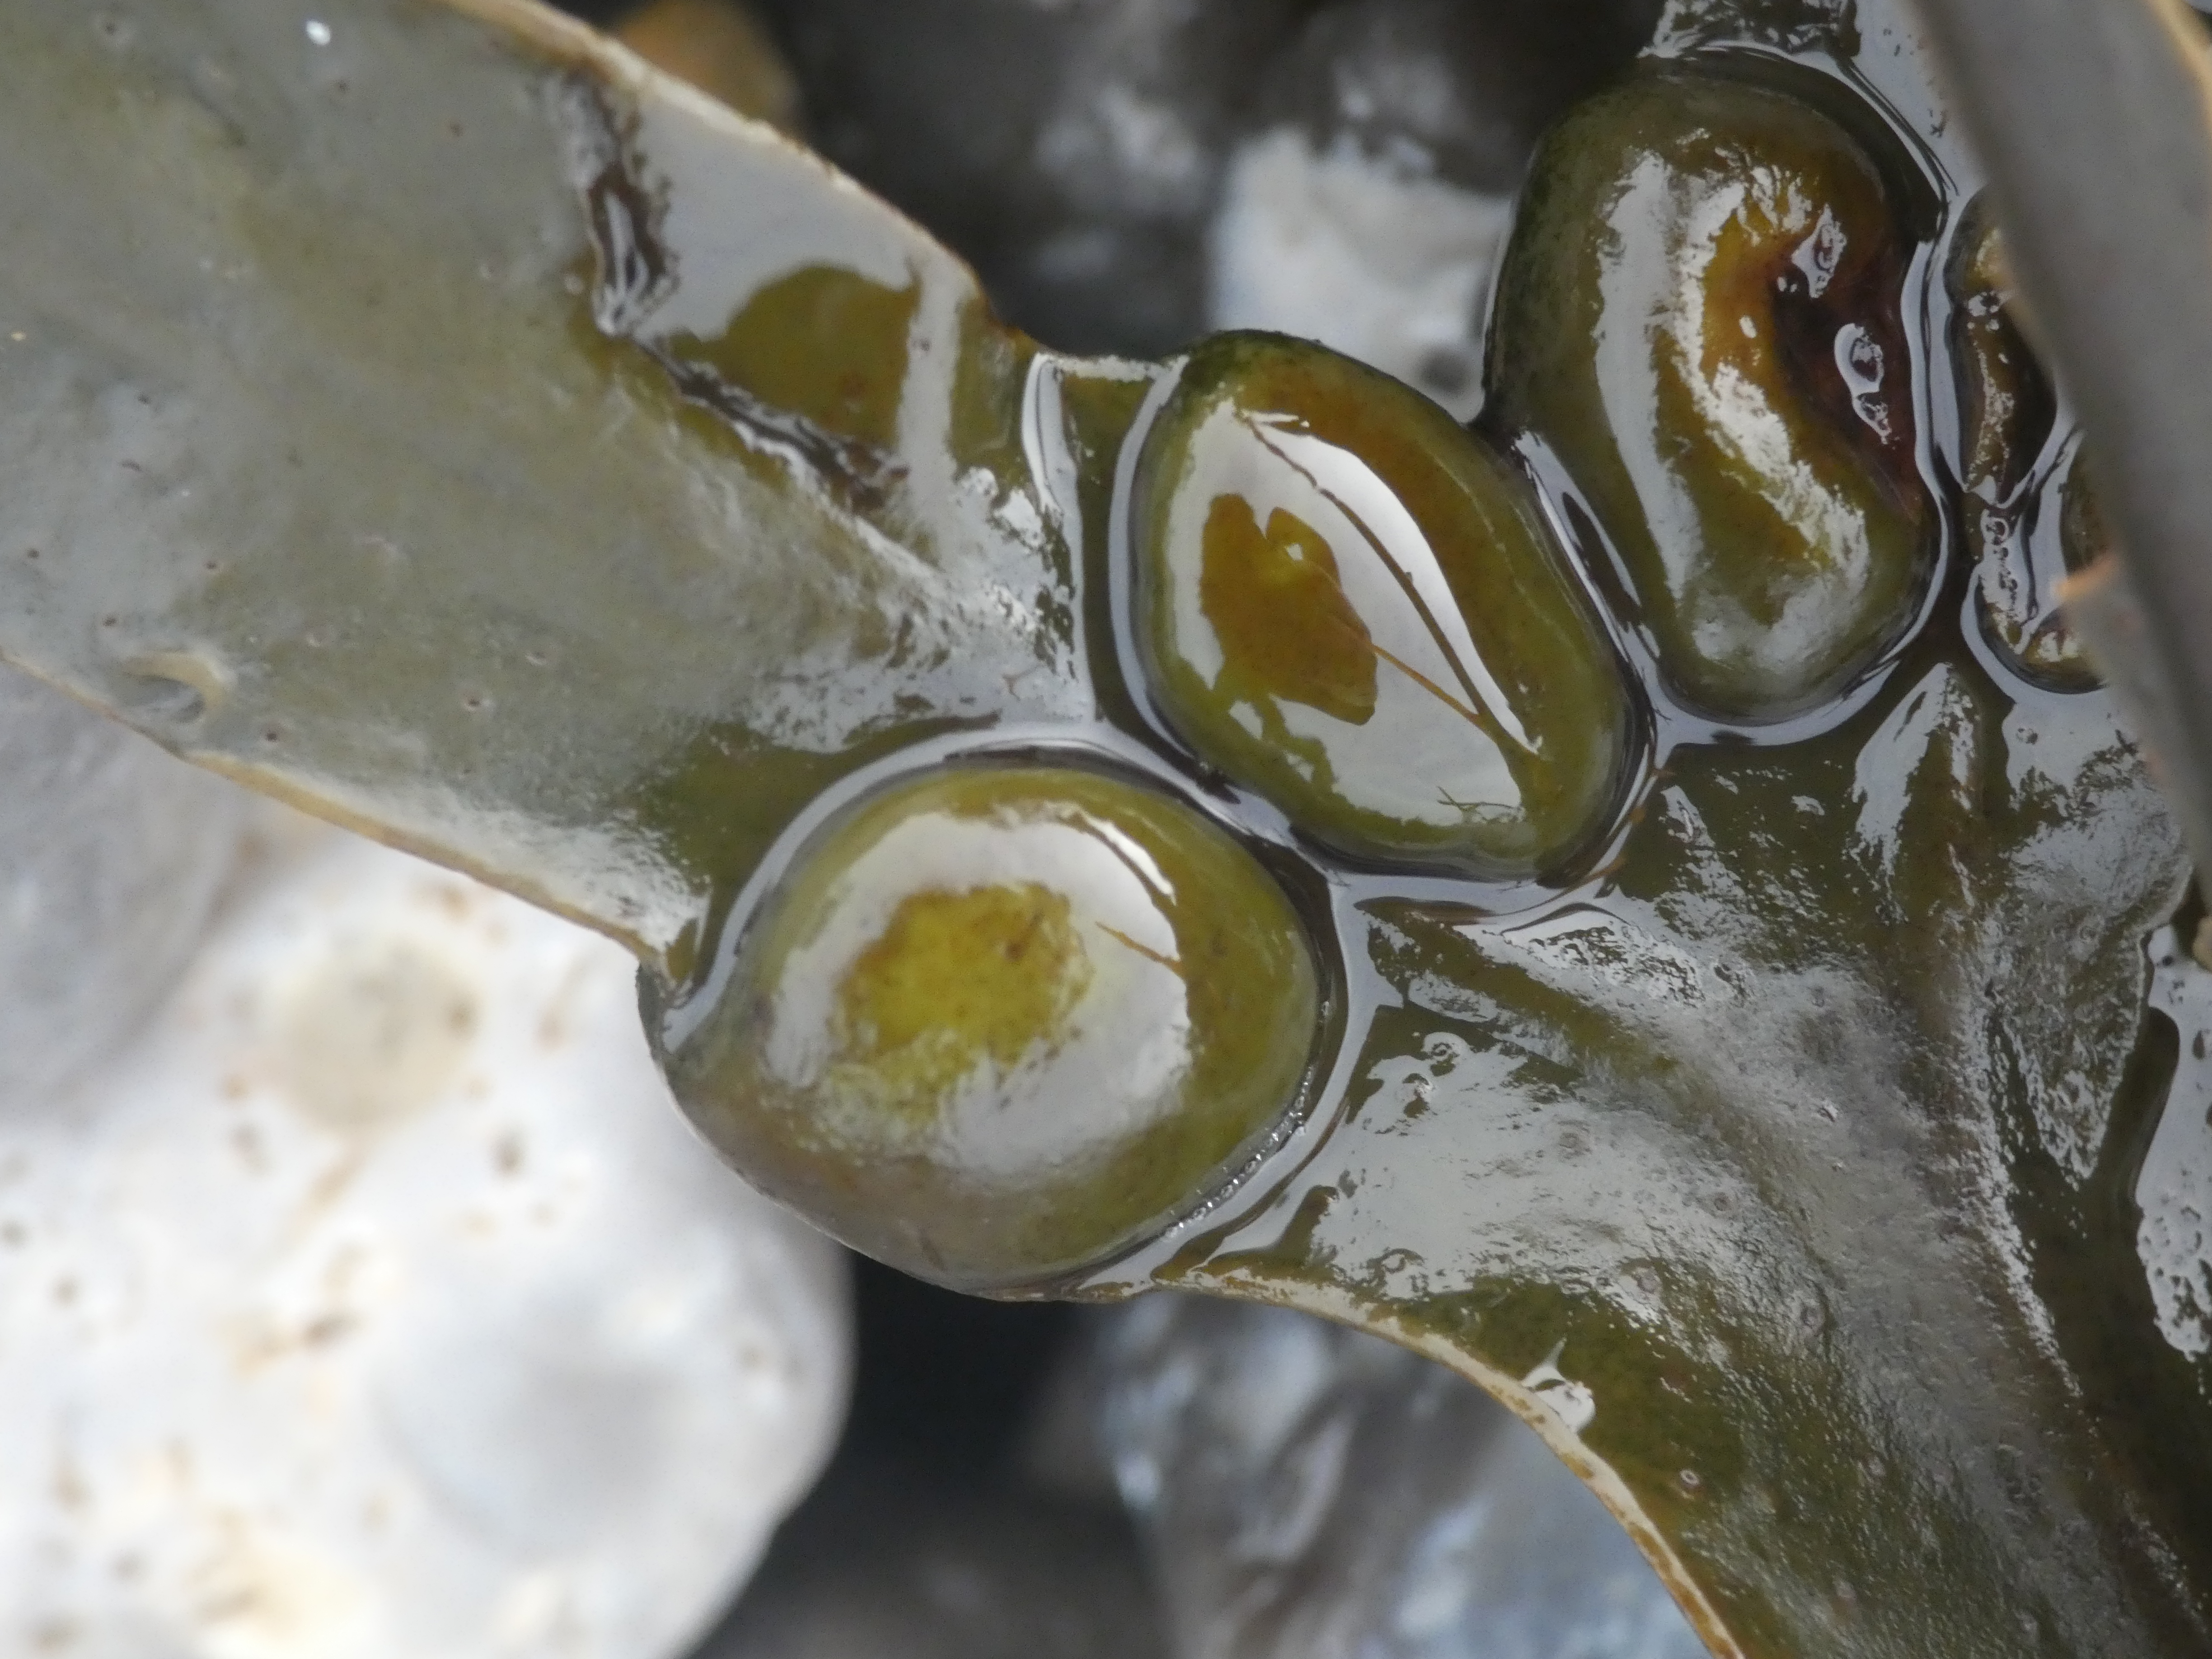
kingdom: Chromista
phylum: Ochrophyta
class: Phaeophyceae
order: Fucales
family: Fucaceae
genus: Fucus
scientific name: Fucus vesiculosus
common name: Blæretang
